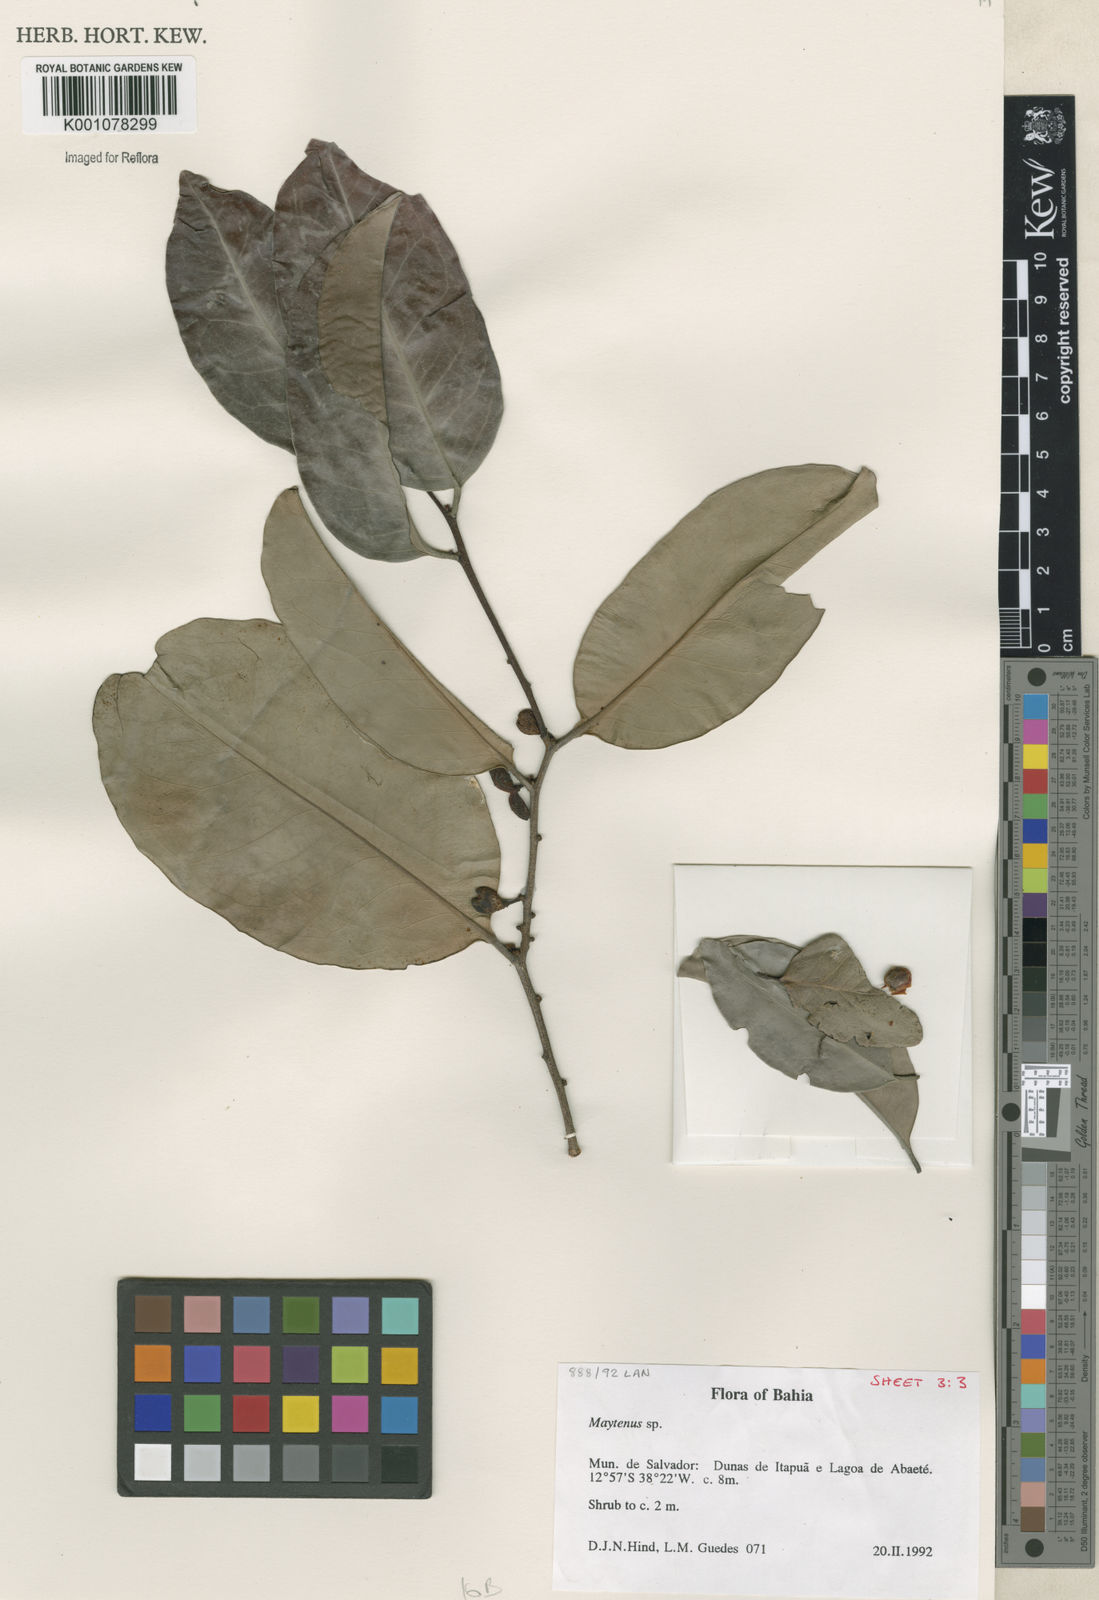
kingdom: Plantae
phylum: Tracheophyta
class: Magnoliopsida
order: Celastrales
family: Celastraceae
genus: Maytenus
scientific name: Maytenus
